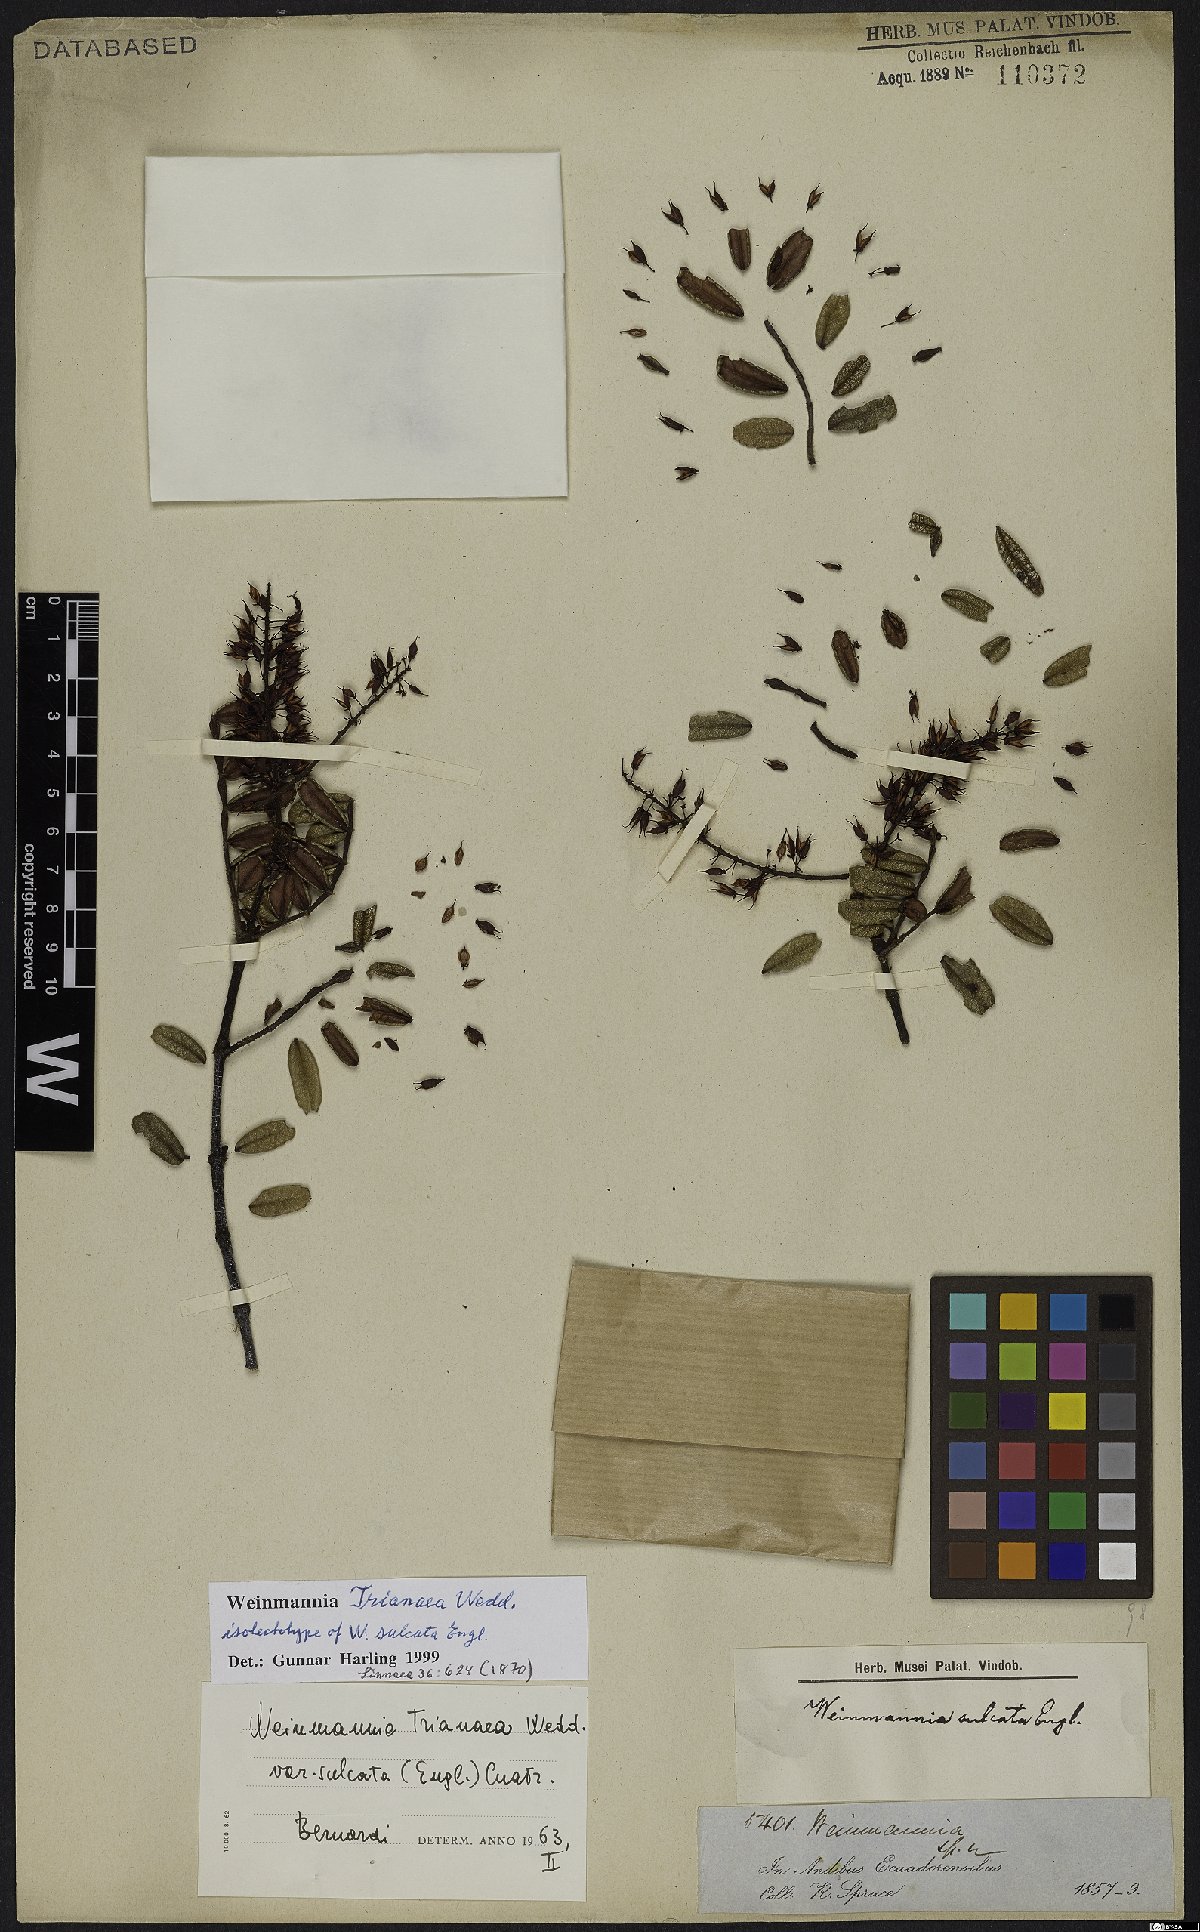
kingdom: Plantae
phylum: Tracheophyta
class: Magnoliopsida
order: Oxalidales
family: Cunoniaceae
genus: Weinmannia
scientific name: Weinmannia trianaea
